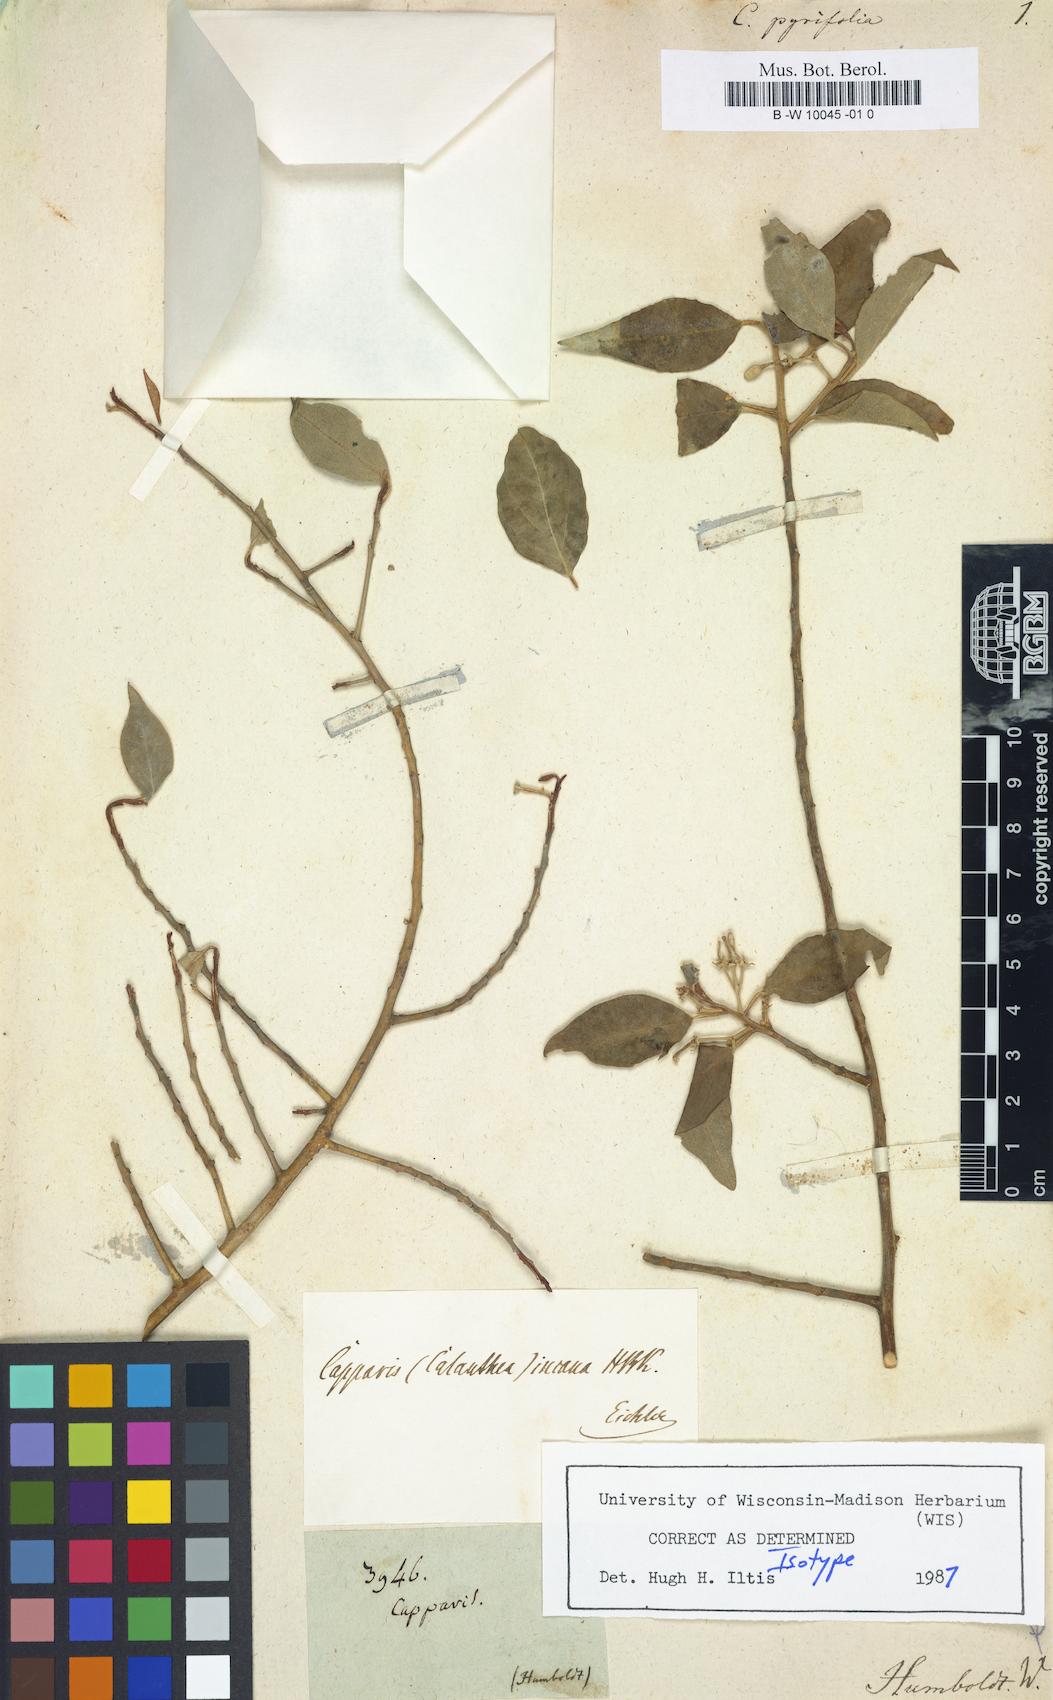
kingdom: Plantae
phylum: Tracheophyta
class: Magnoliopsida
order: Brassicales
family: Capparaceae
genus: Capparis
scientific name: Capparis pyrifolia
